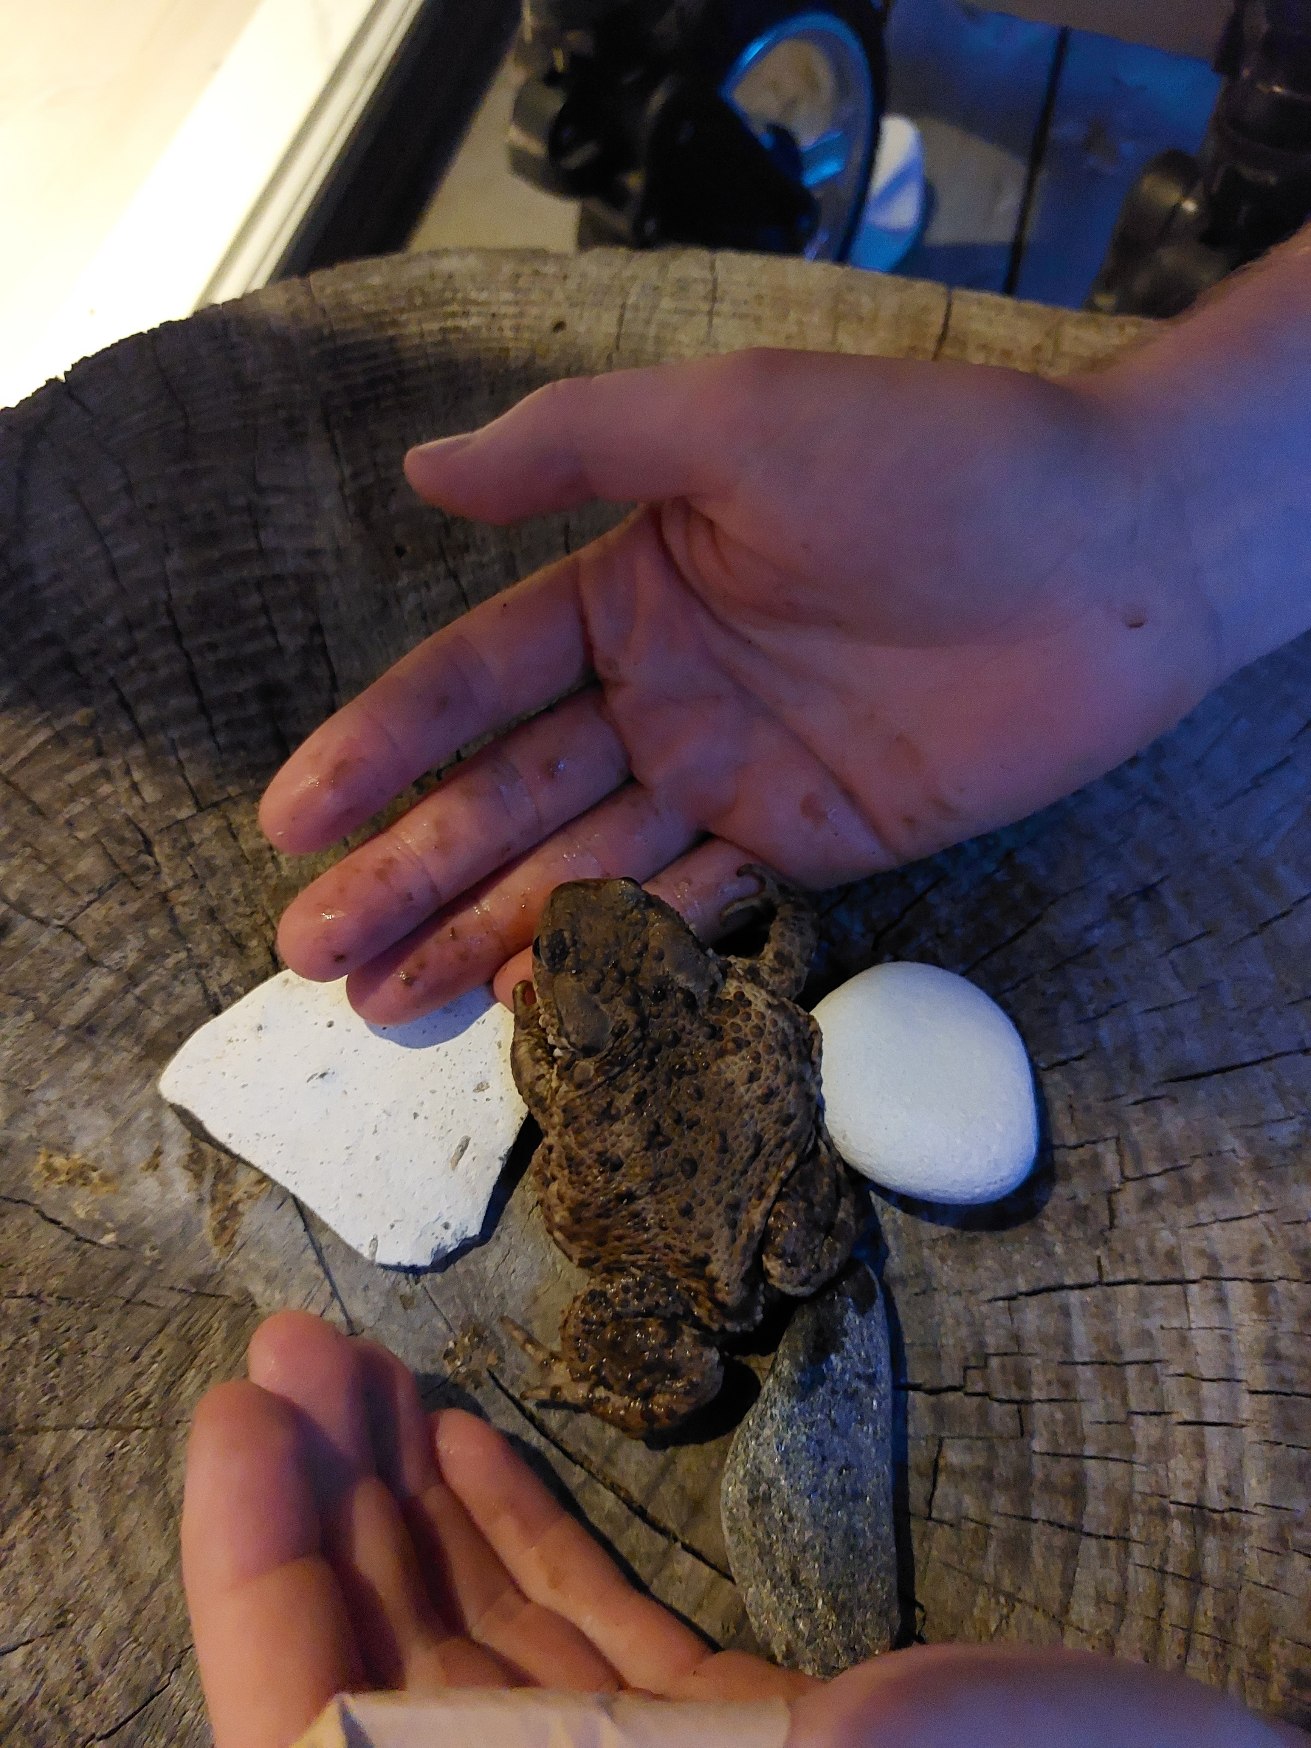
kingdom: Animalia
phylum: Chordata
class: Amphibia
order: Anura
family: Bufonidae
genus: Bufo
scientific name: Bufo bufo
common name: Skrubtudse
